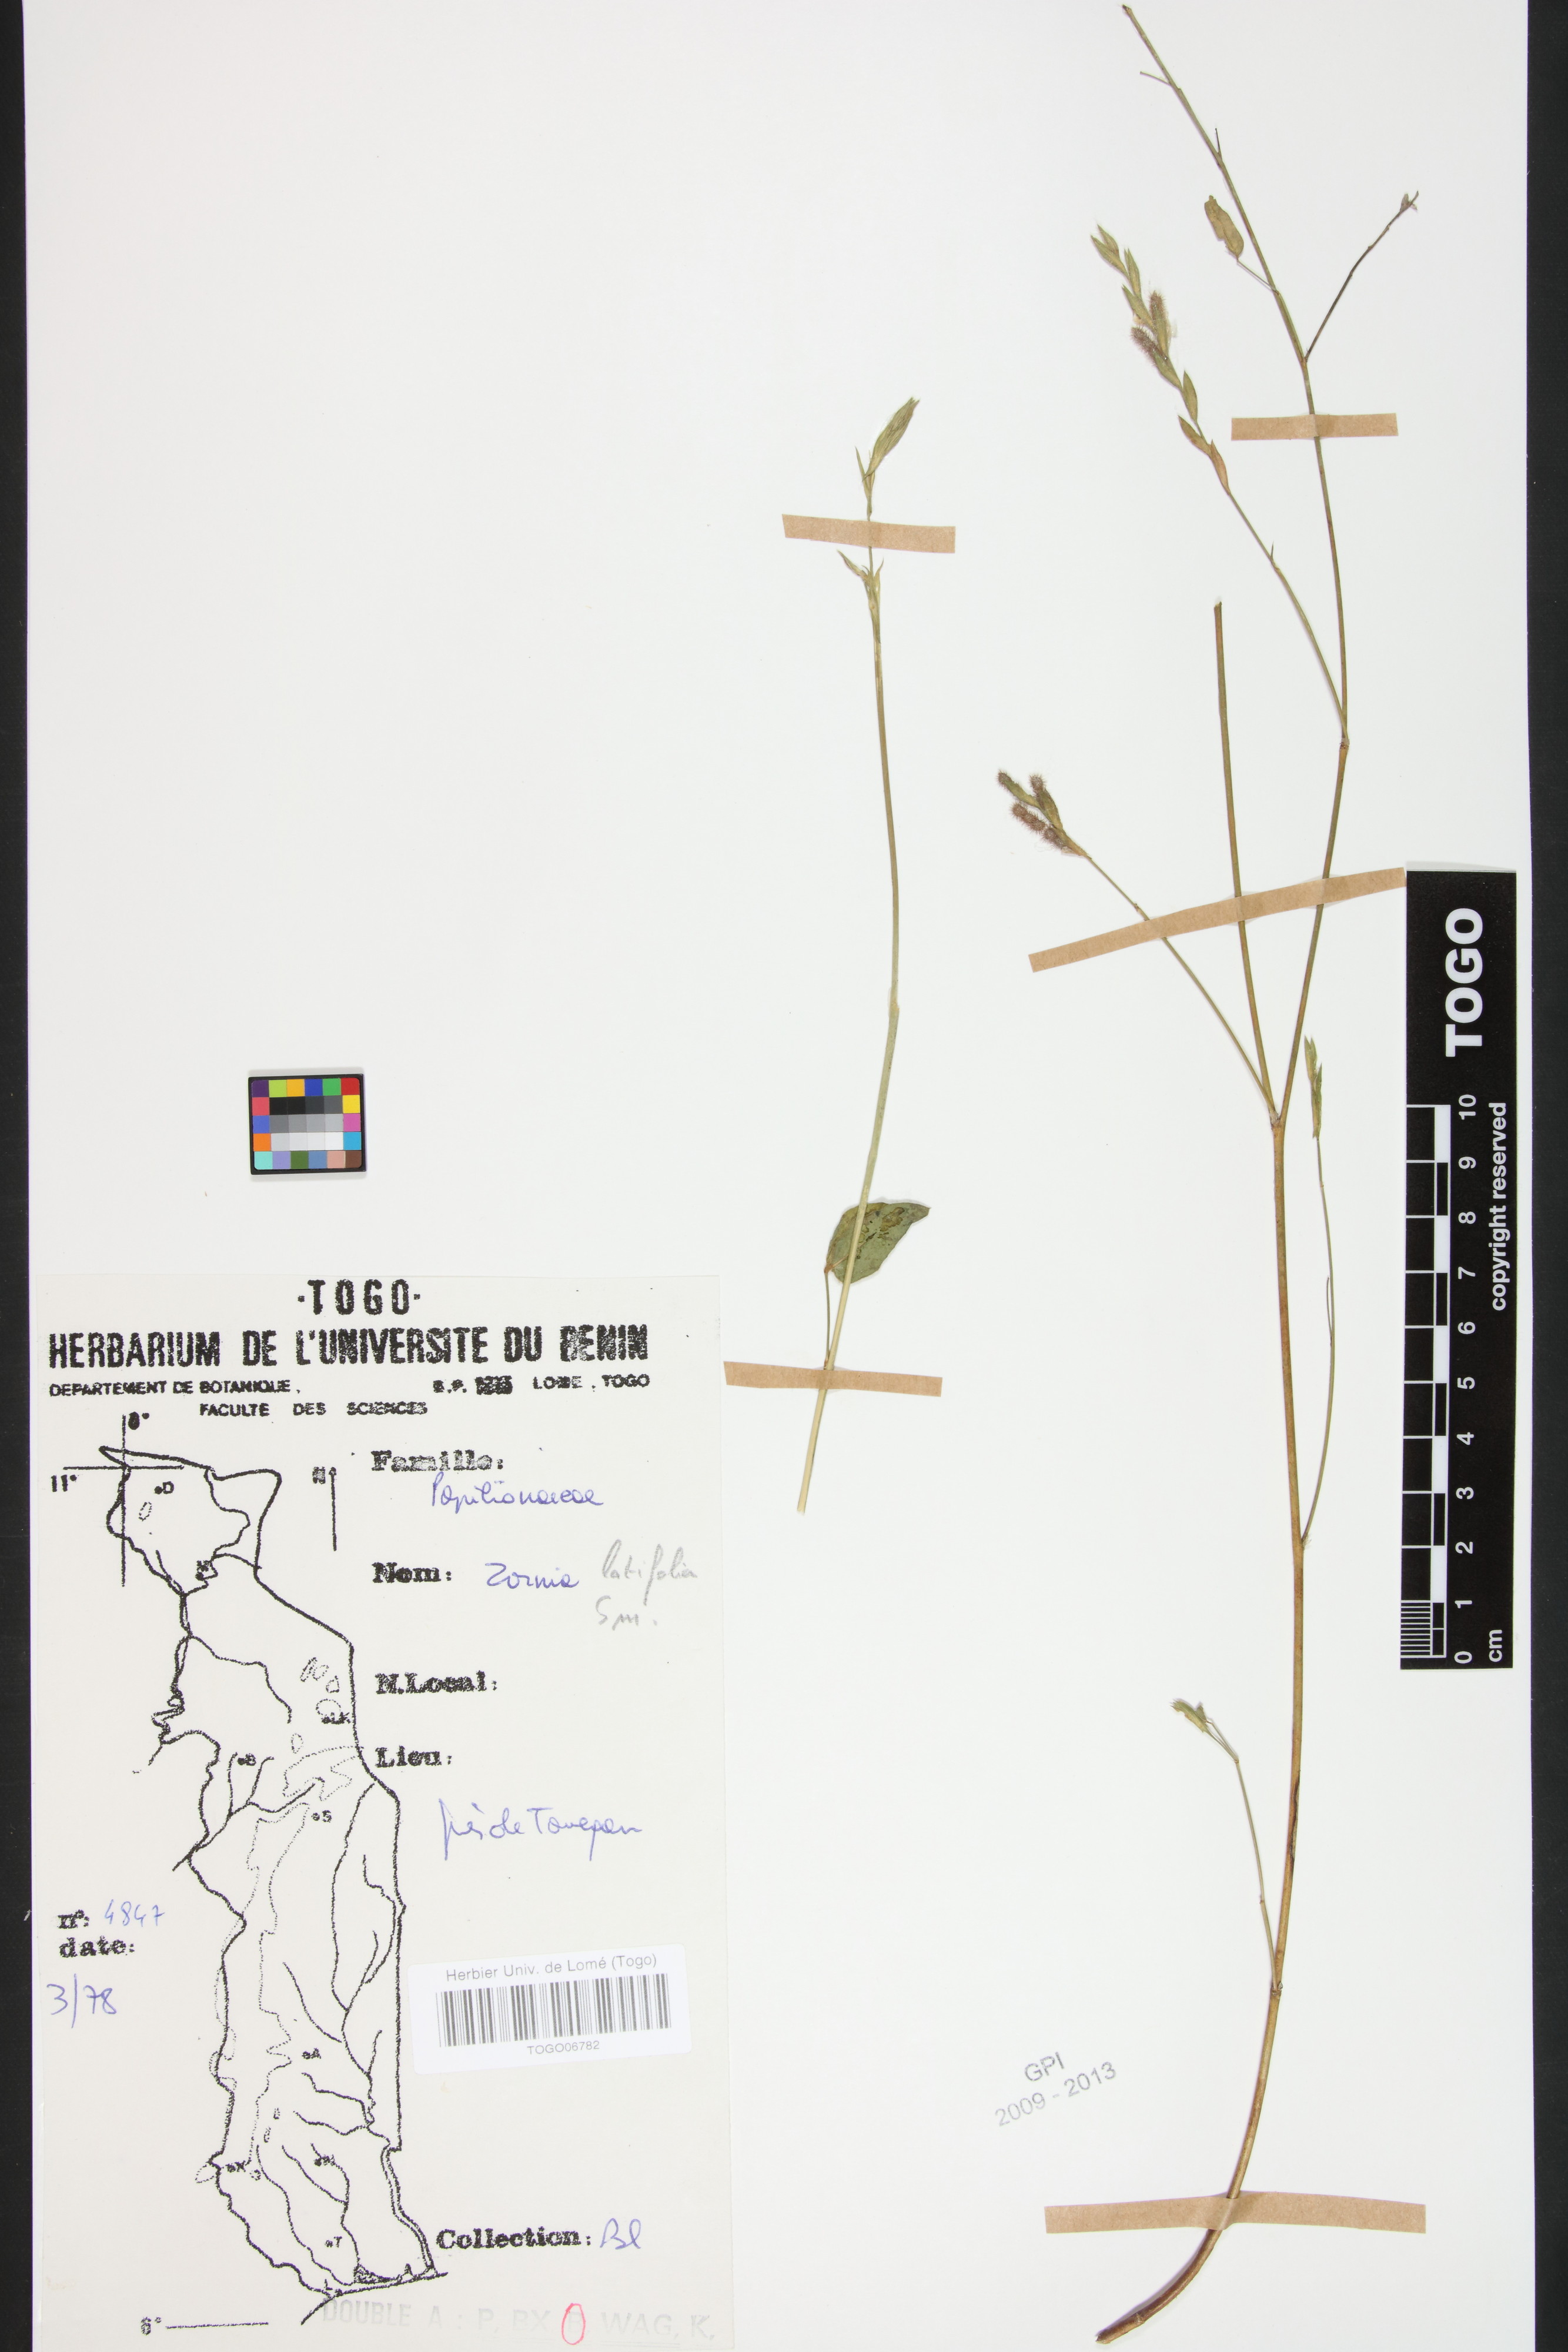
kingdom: Plantae
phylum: Tracheophyta
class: Magnoliopsida
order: Fabales
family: Fabaceae
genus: Zornia
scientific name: Zornia latifolia
